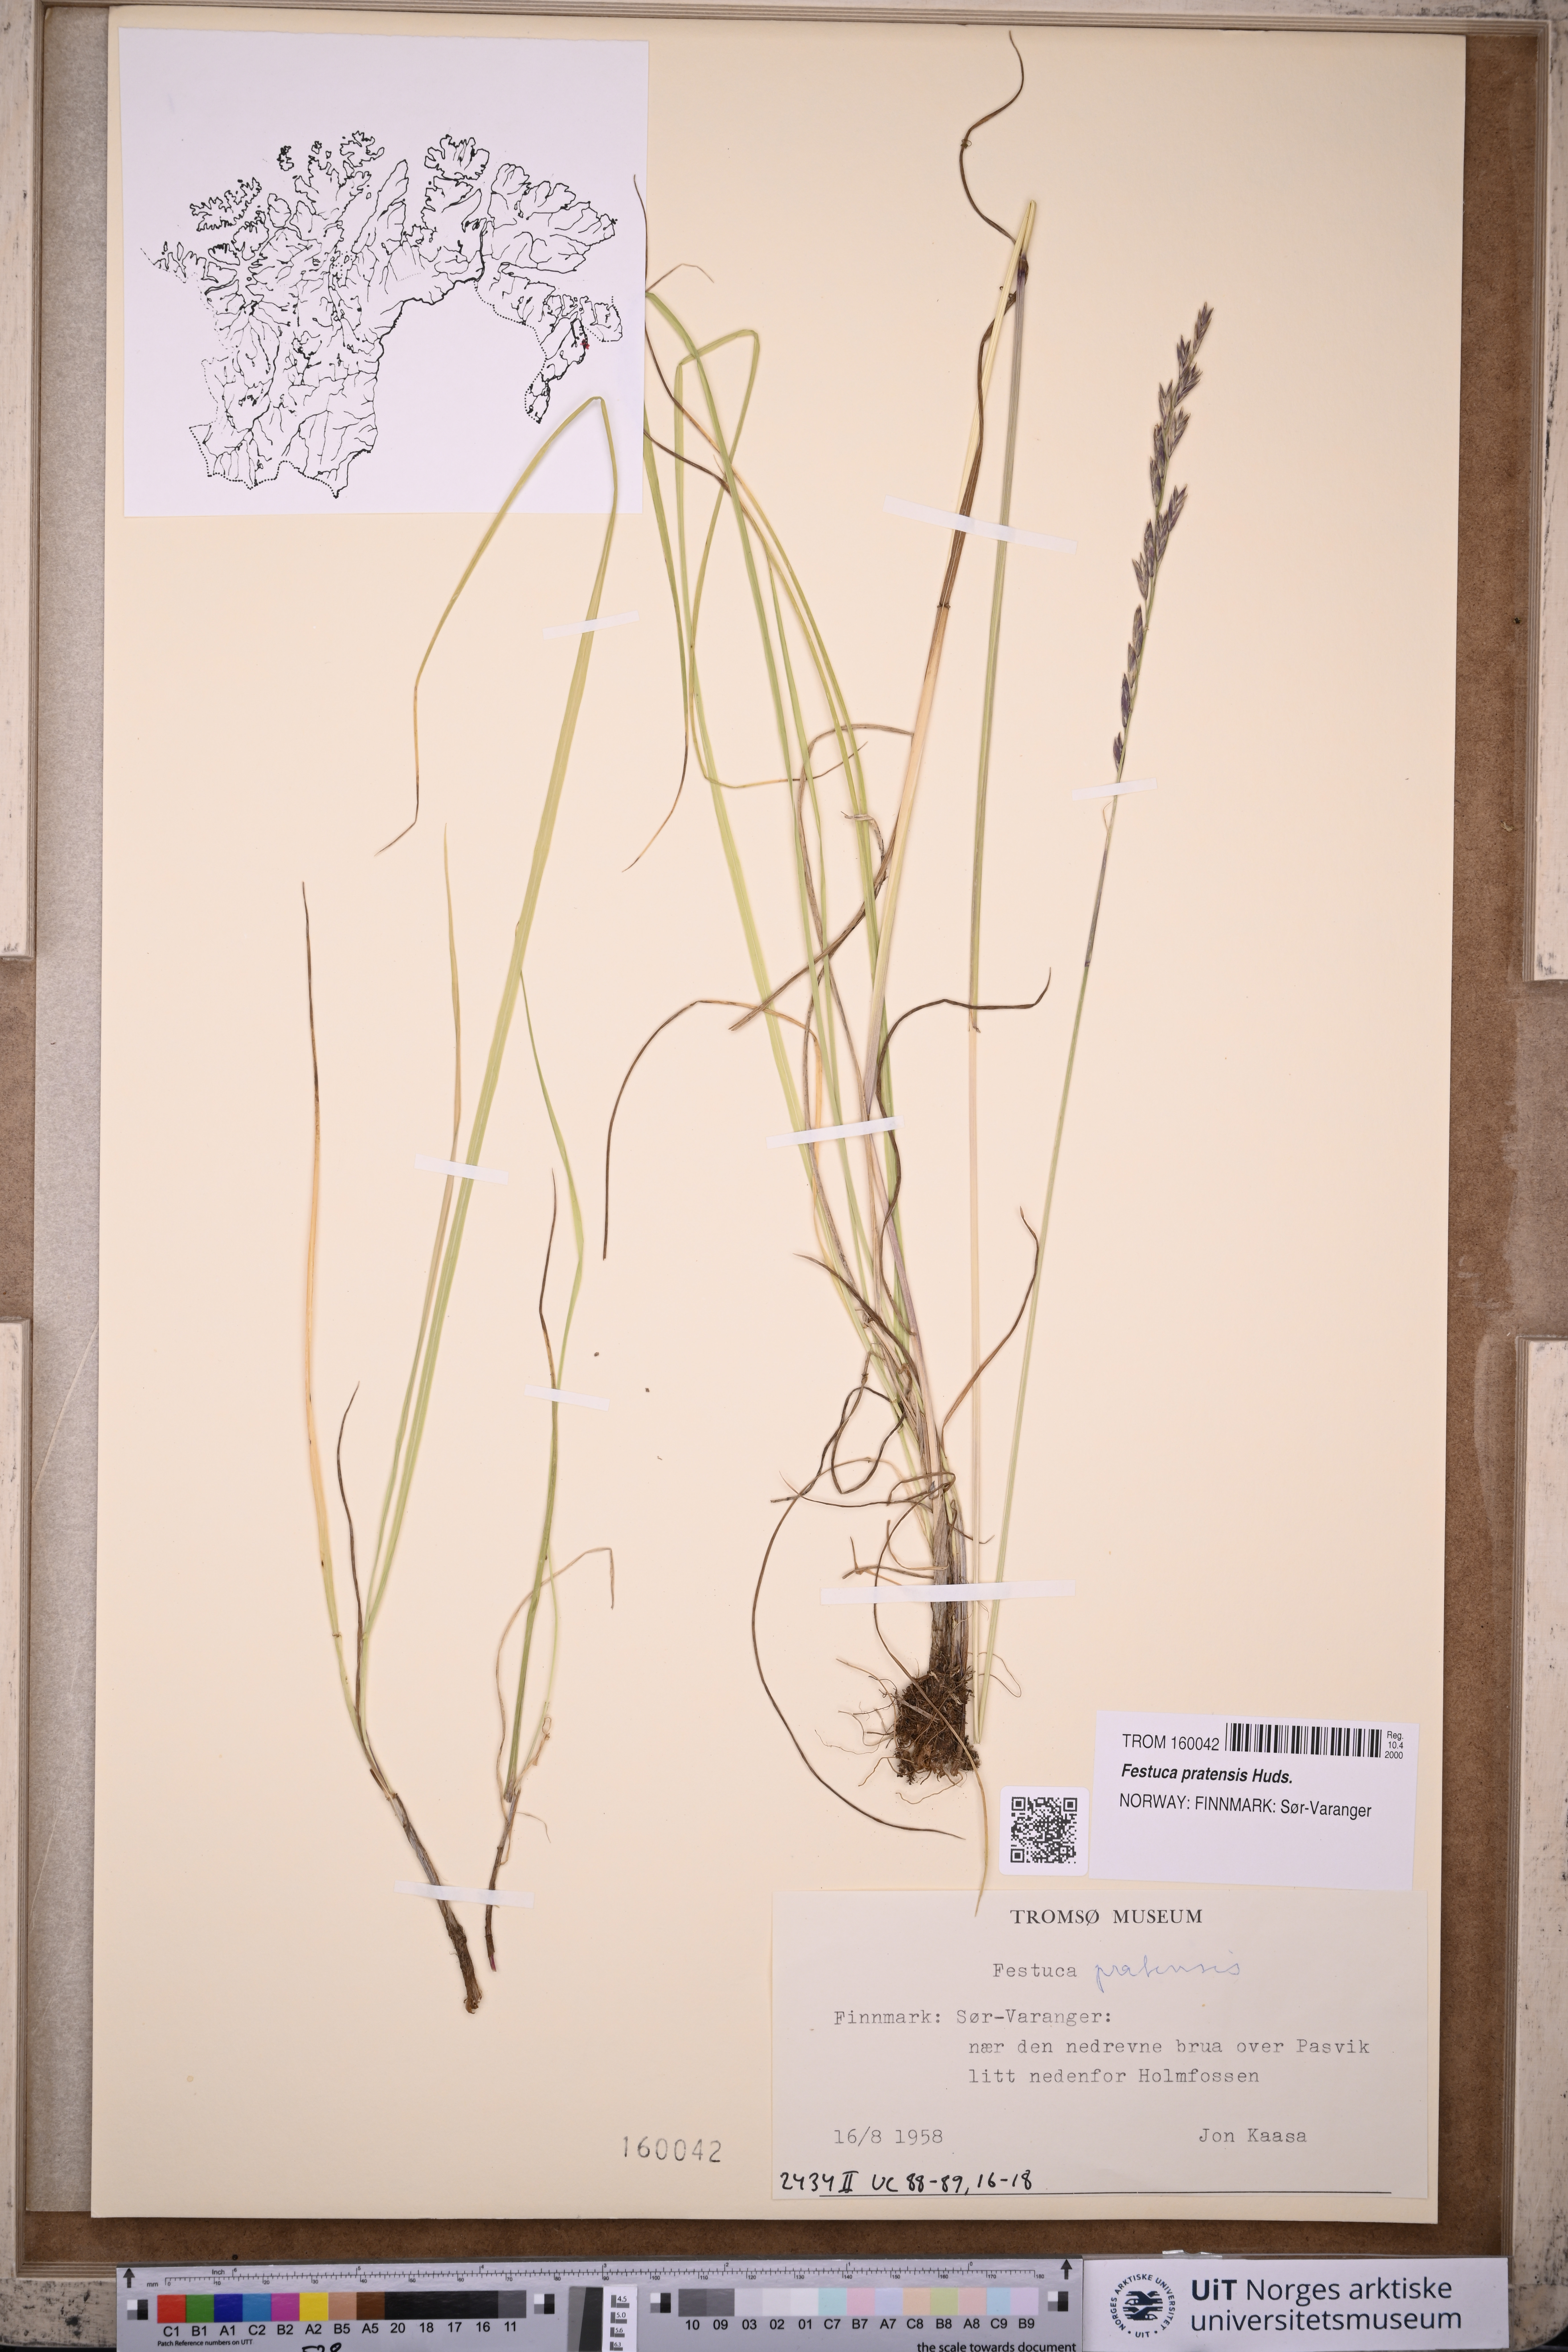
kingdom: Plantae
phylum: Tracheophyta
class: Liliopsida
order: Poales
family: Poaceae
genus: Lolium
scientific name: Lolium pratense
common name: Dover grass
